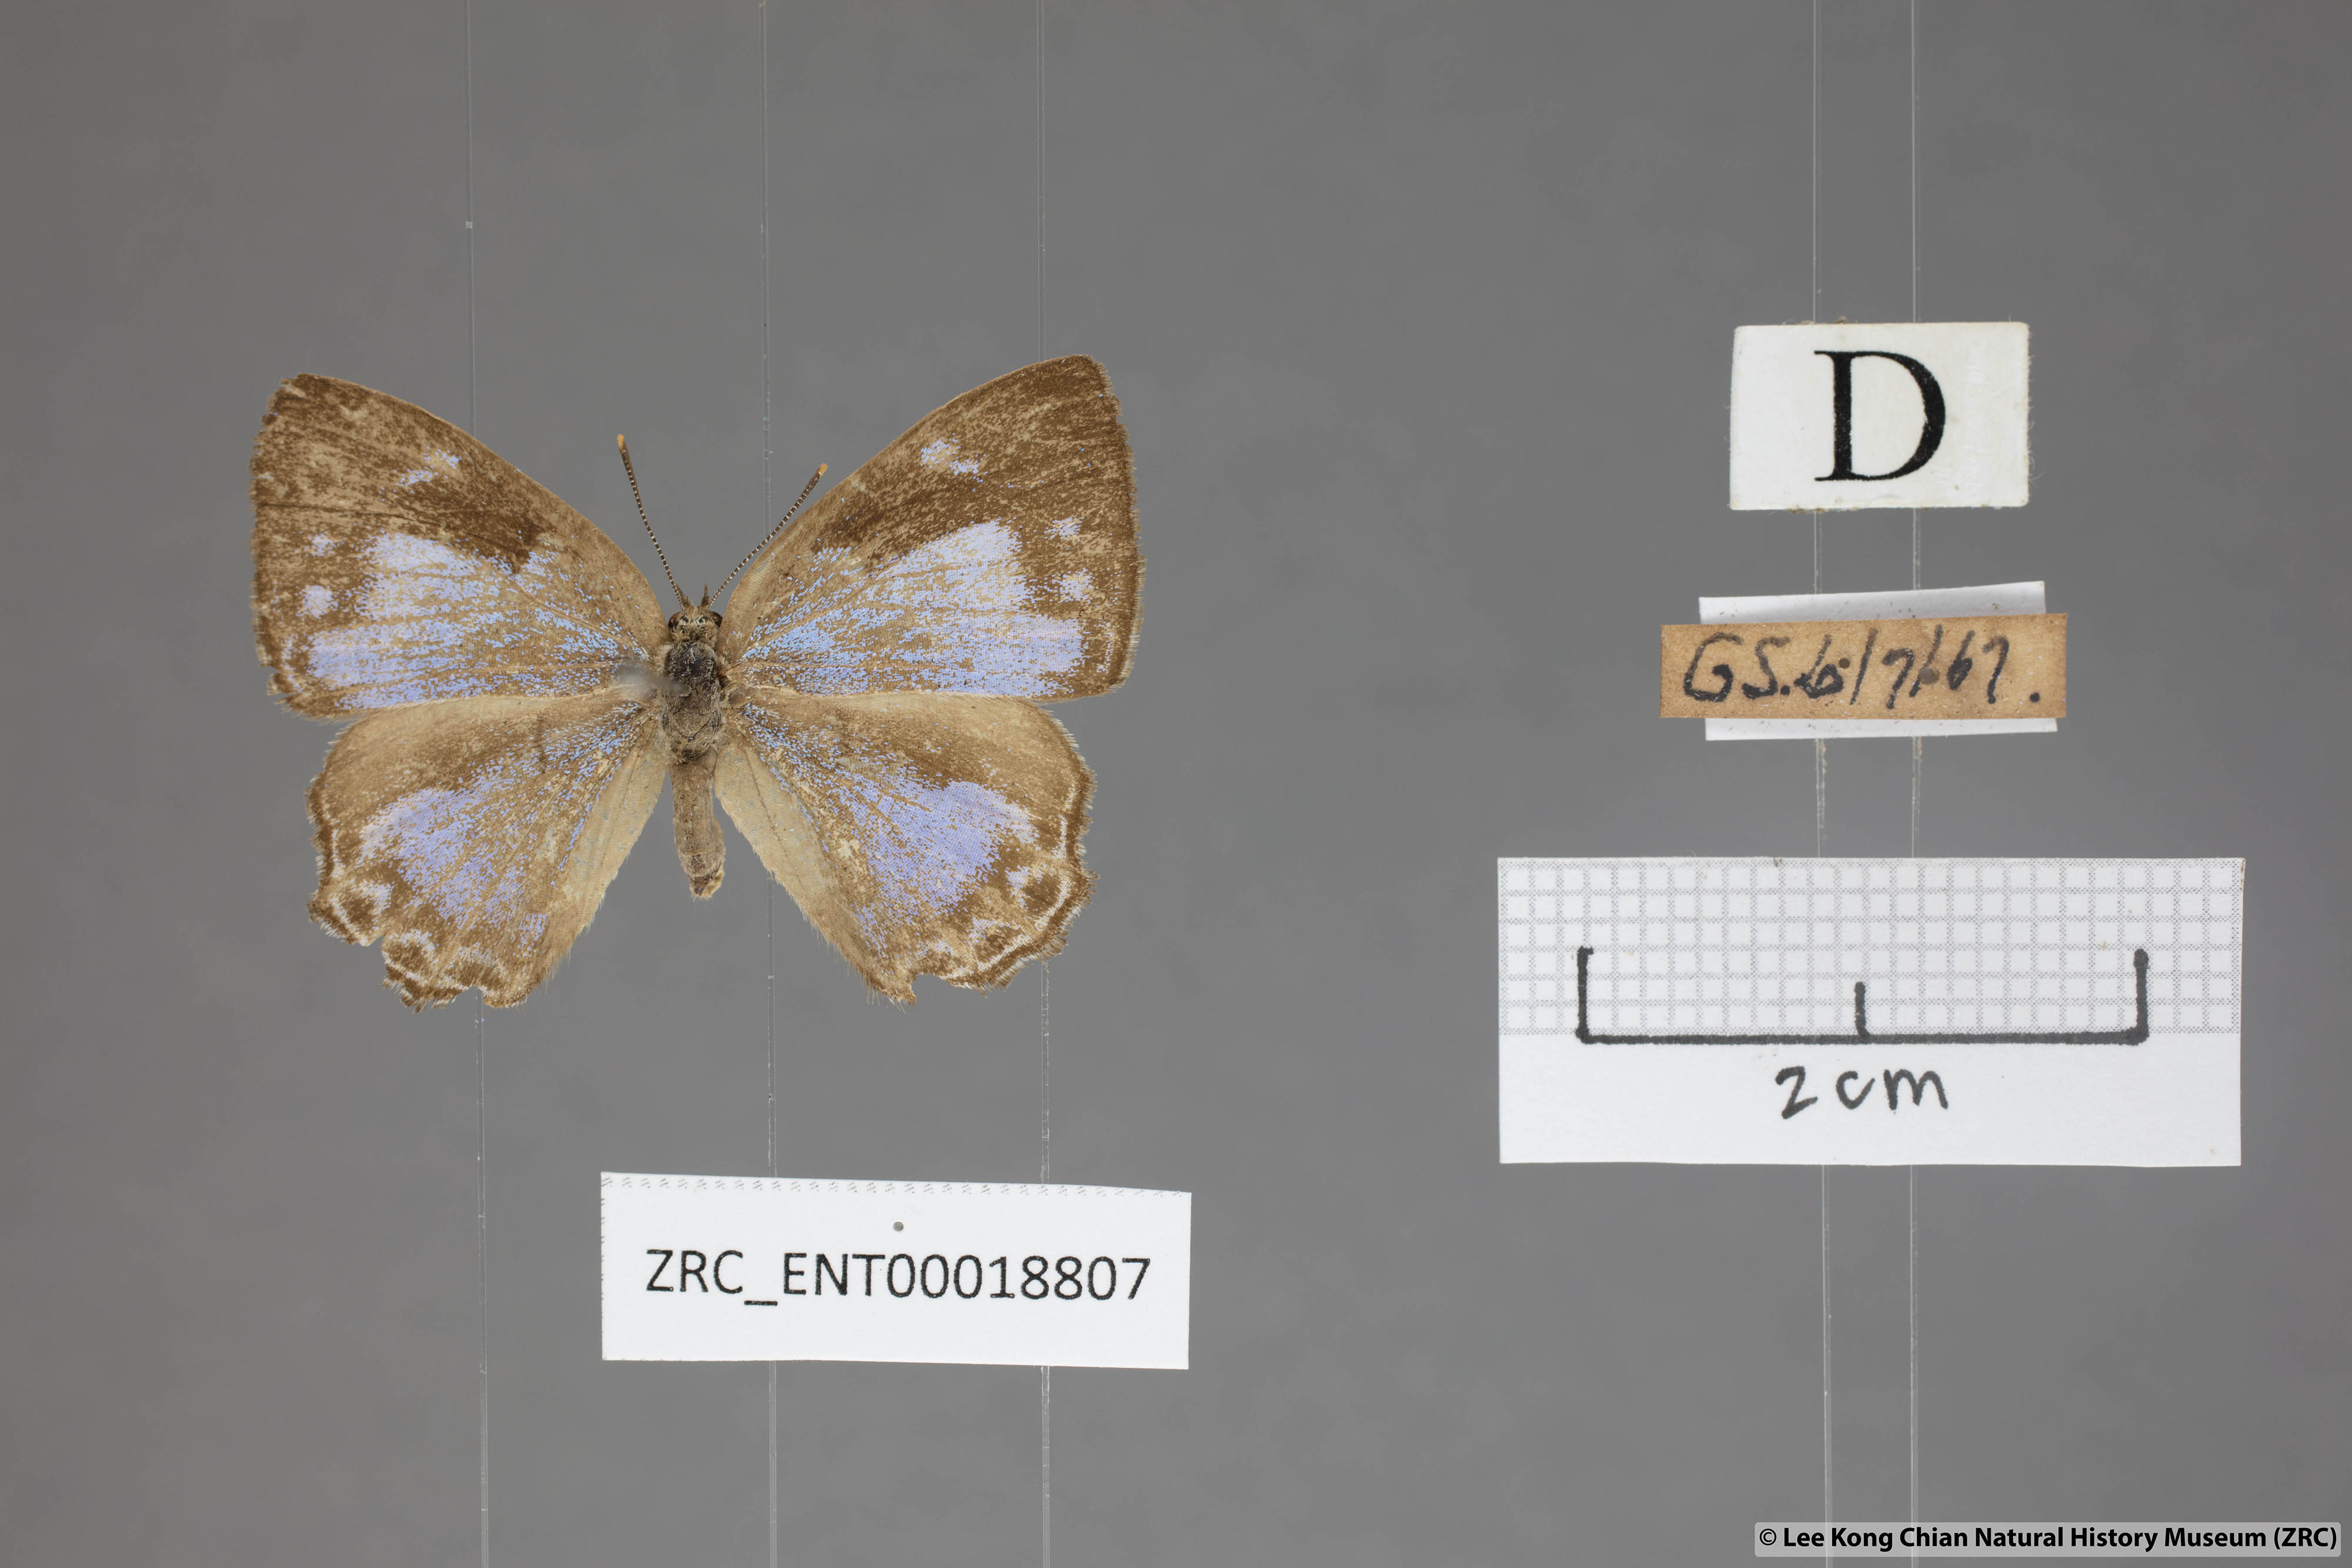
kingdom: Animalia
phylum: Arthropoda
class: Insecta
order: Lepidoptera
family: Lycaenidae
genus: Poritia
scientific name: Poritia pleurata
